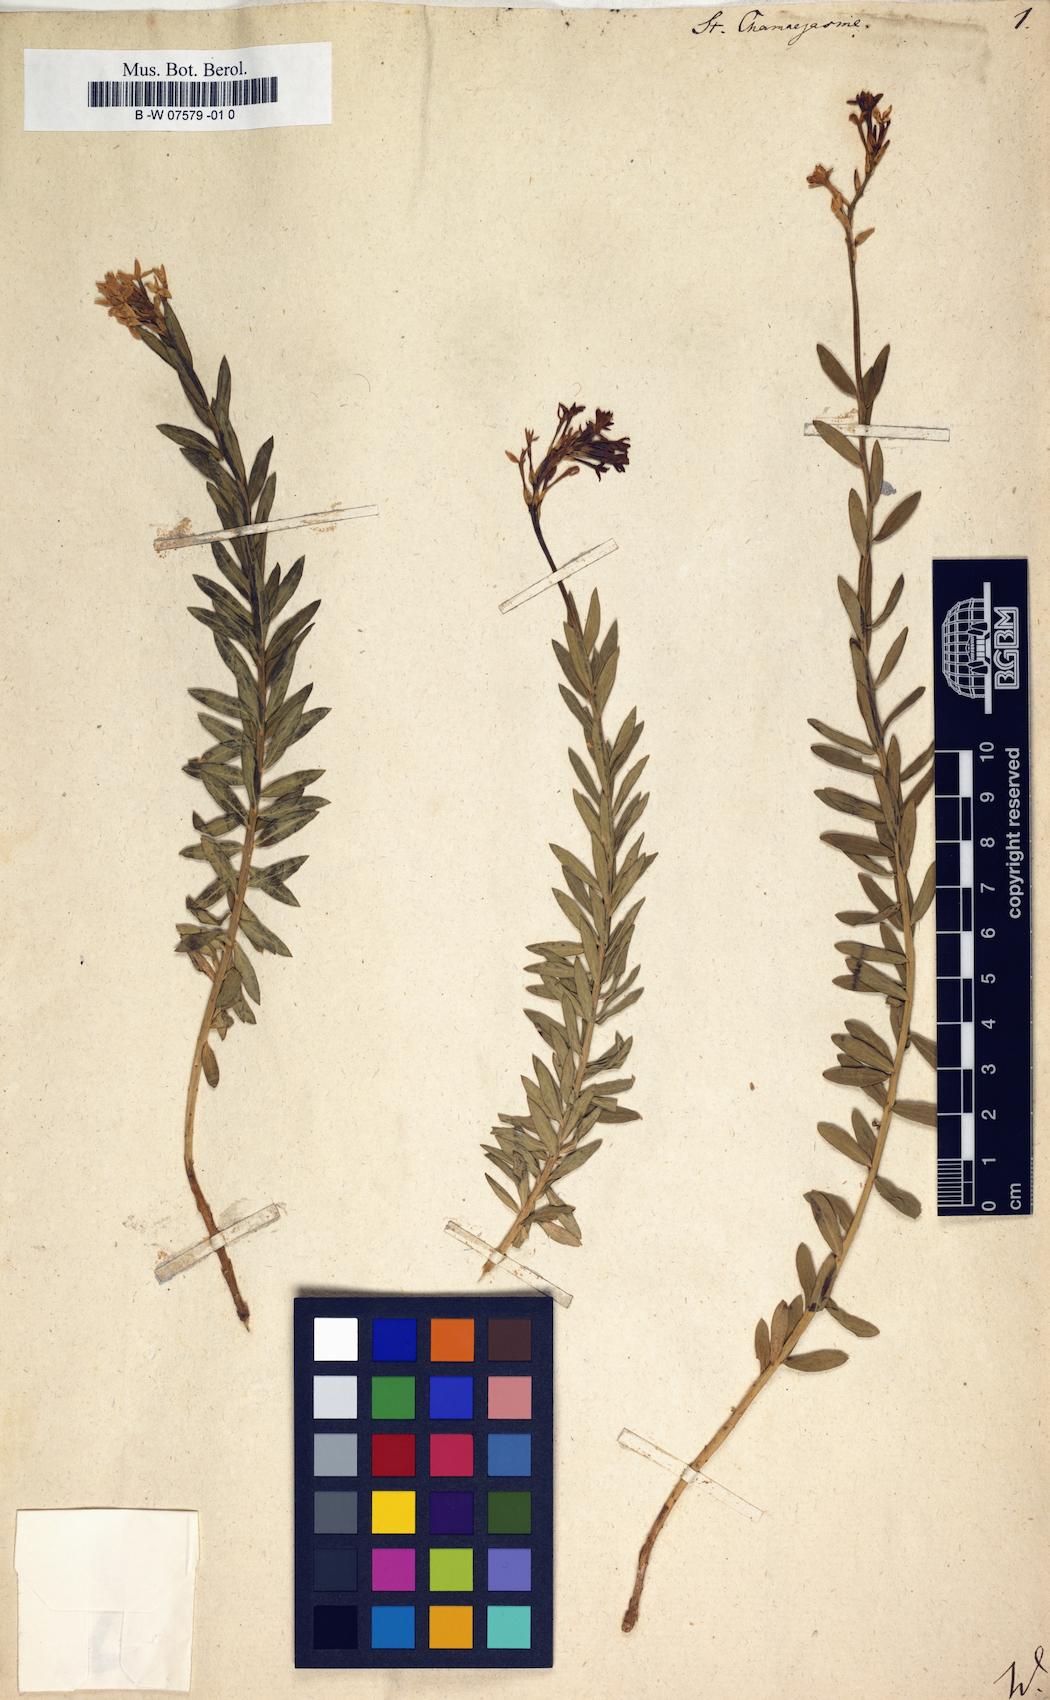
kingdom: Plantae
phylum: Tracheophyta
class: Magnoliopsida
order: Malvales
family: Thymelaeaceae
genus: Stellera
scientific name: Stellera chamaejasme
